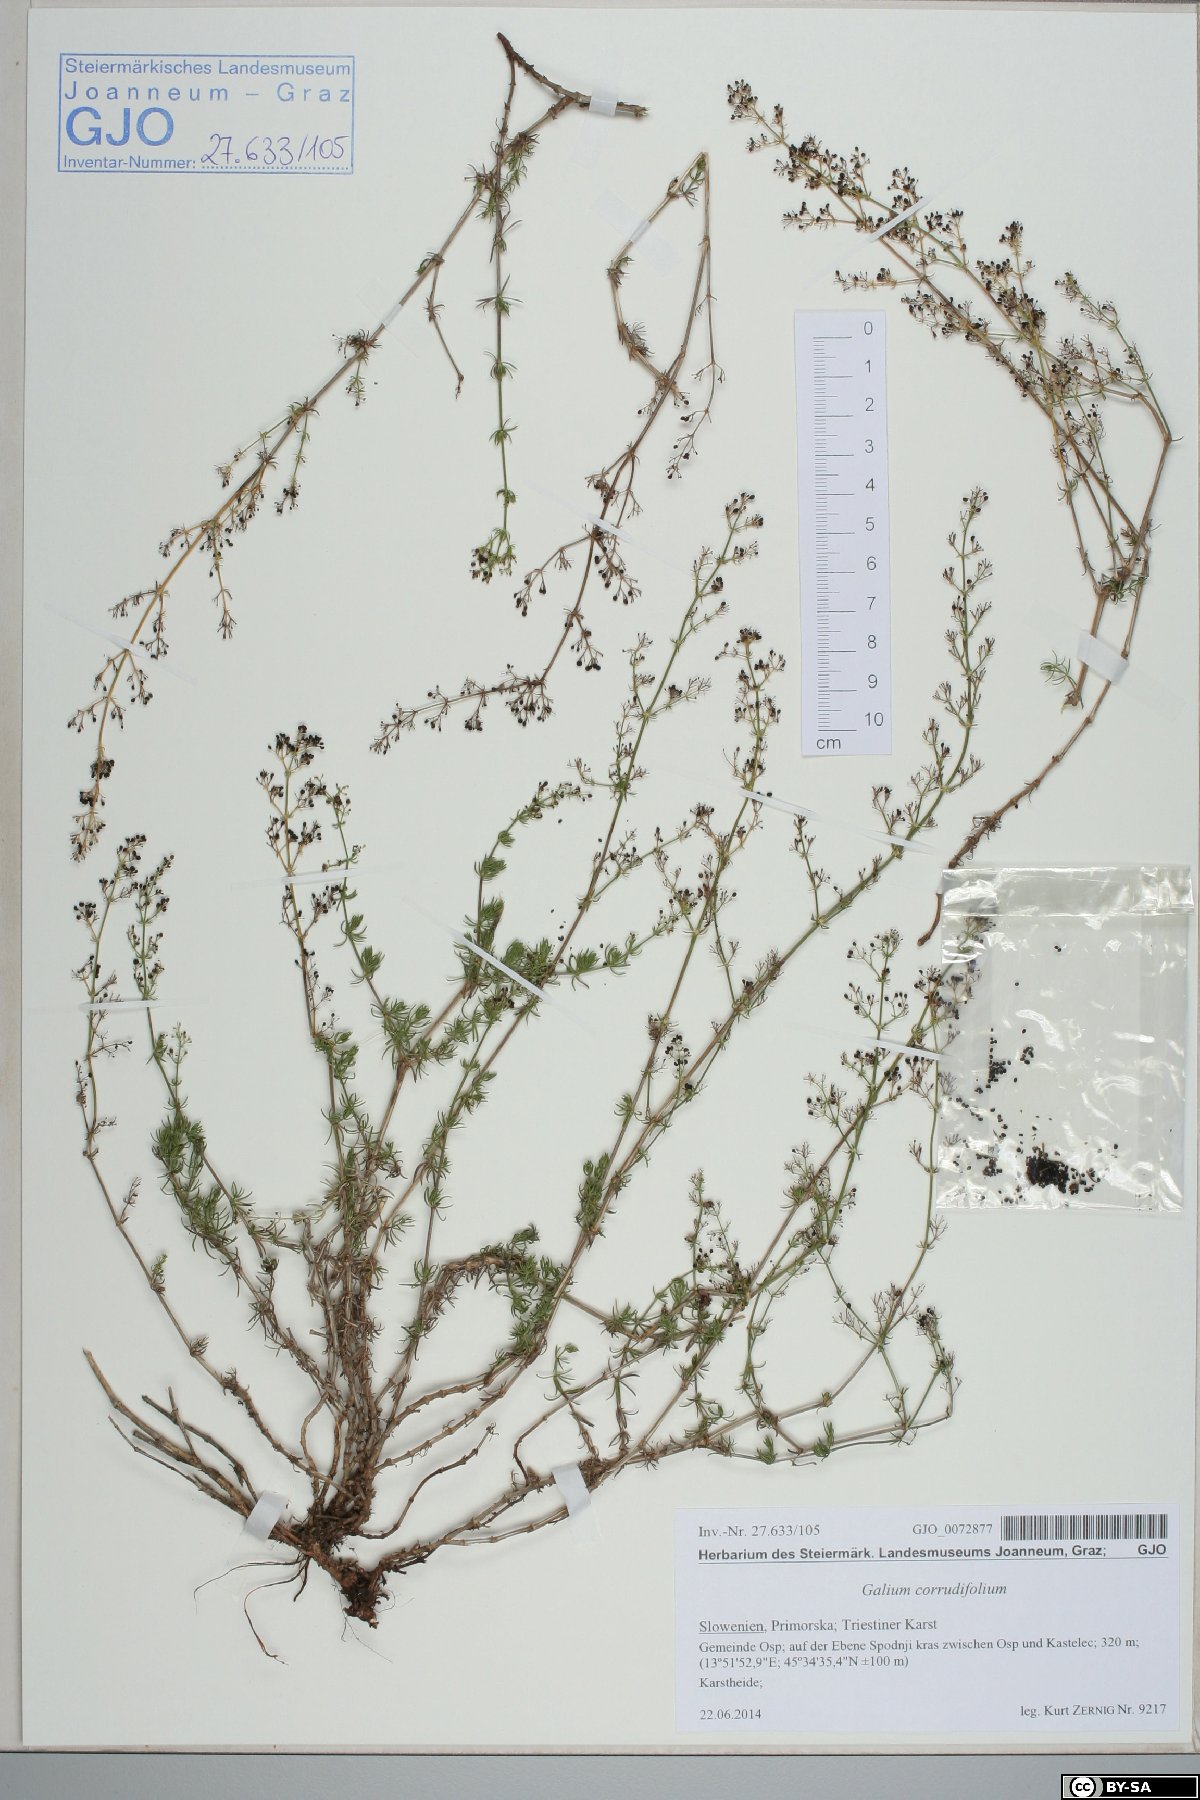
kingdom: Plantae
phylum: Tracheophyta
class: Magnoliopsida
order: Gentianales
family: Rubiaceae
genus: Galium
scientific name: Galium lucidum
